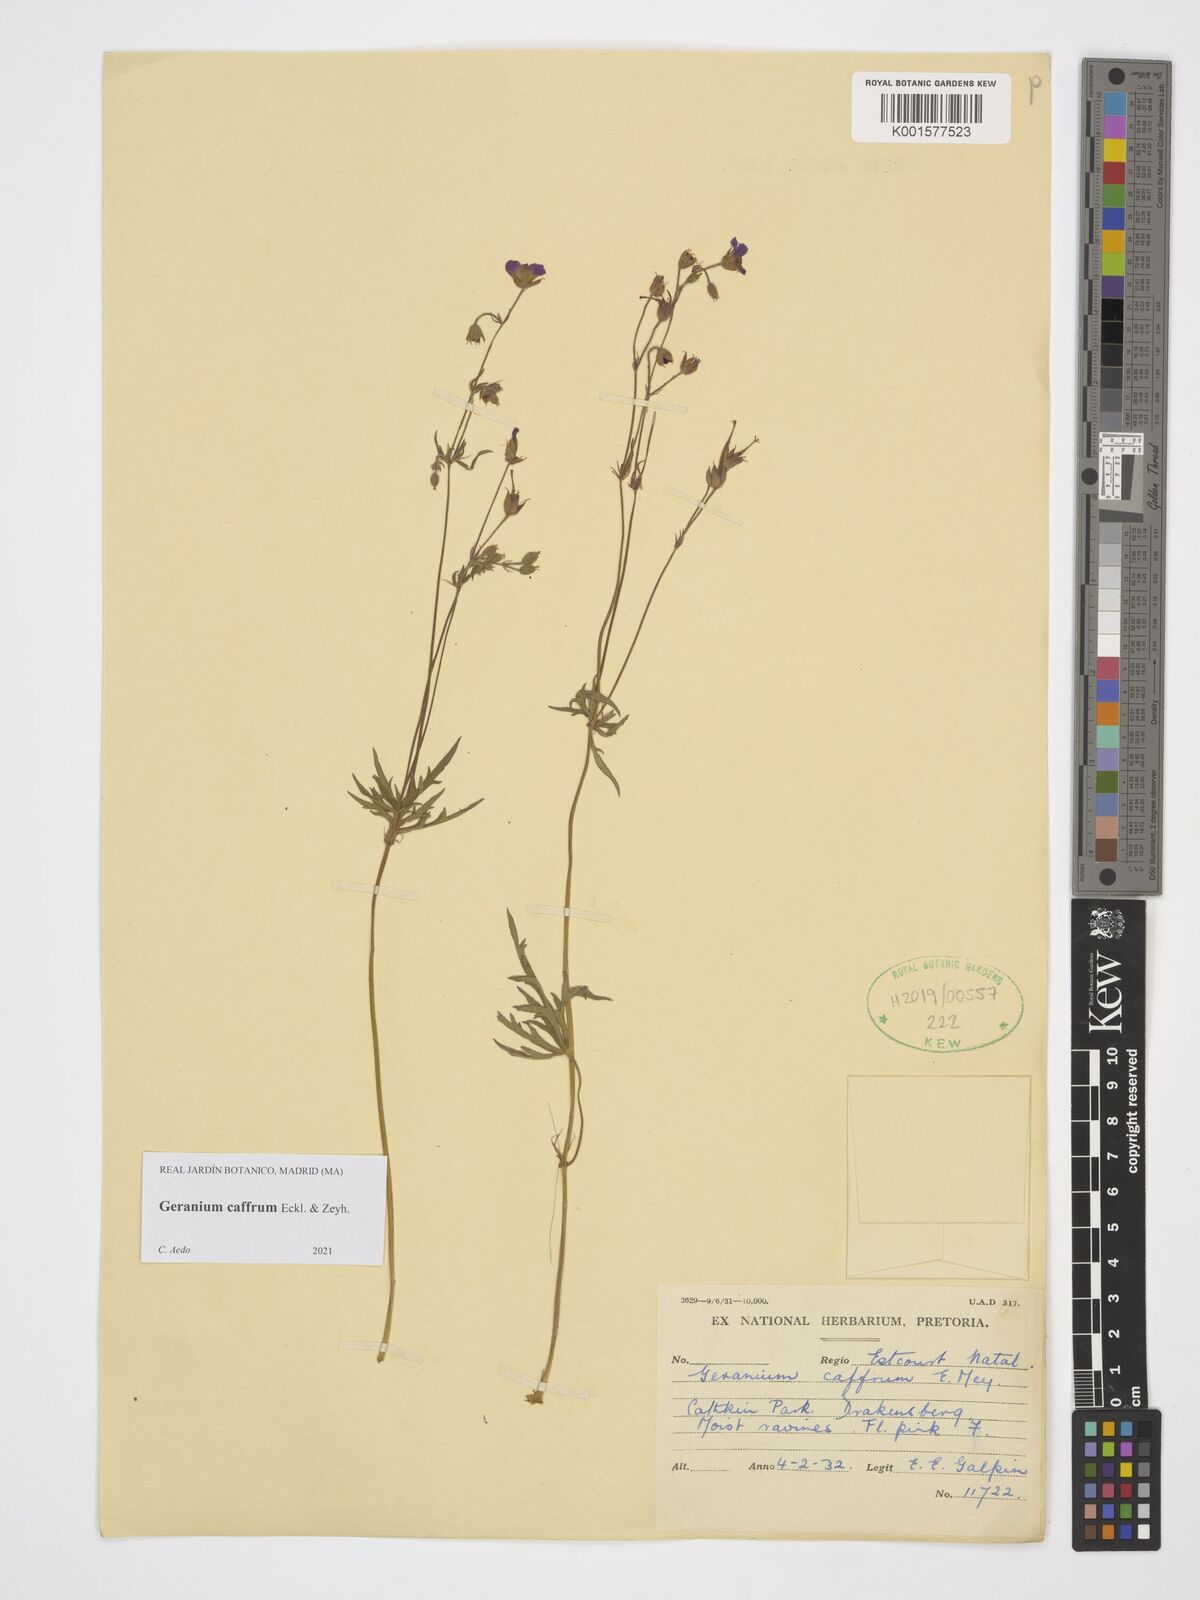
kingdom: Plantae
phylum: Tracheophyta
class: Magnoliopsida
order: Geraniales
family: Geraniaceae
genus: Geranium
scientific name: Geranium caffrum
